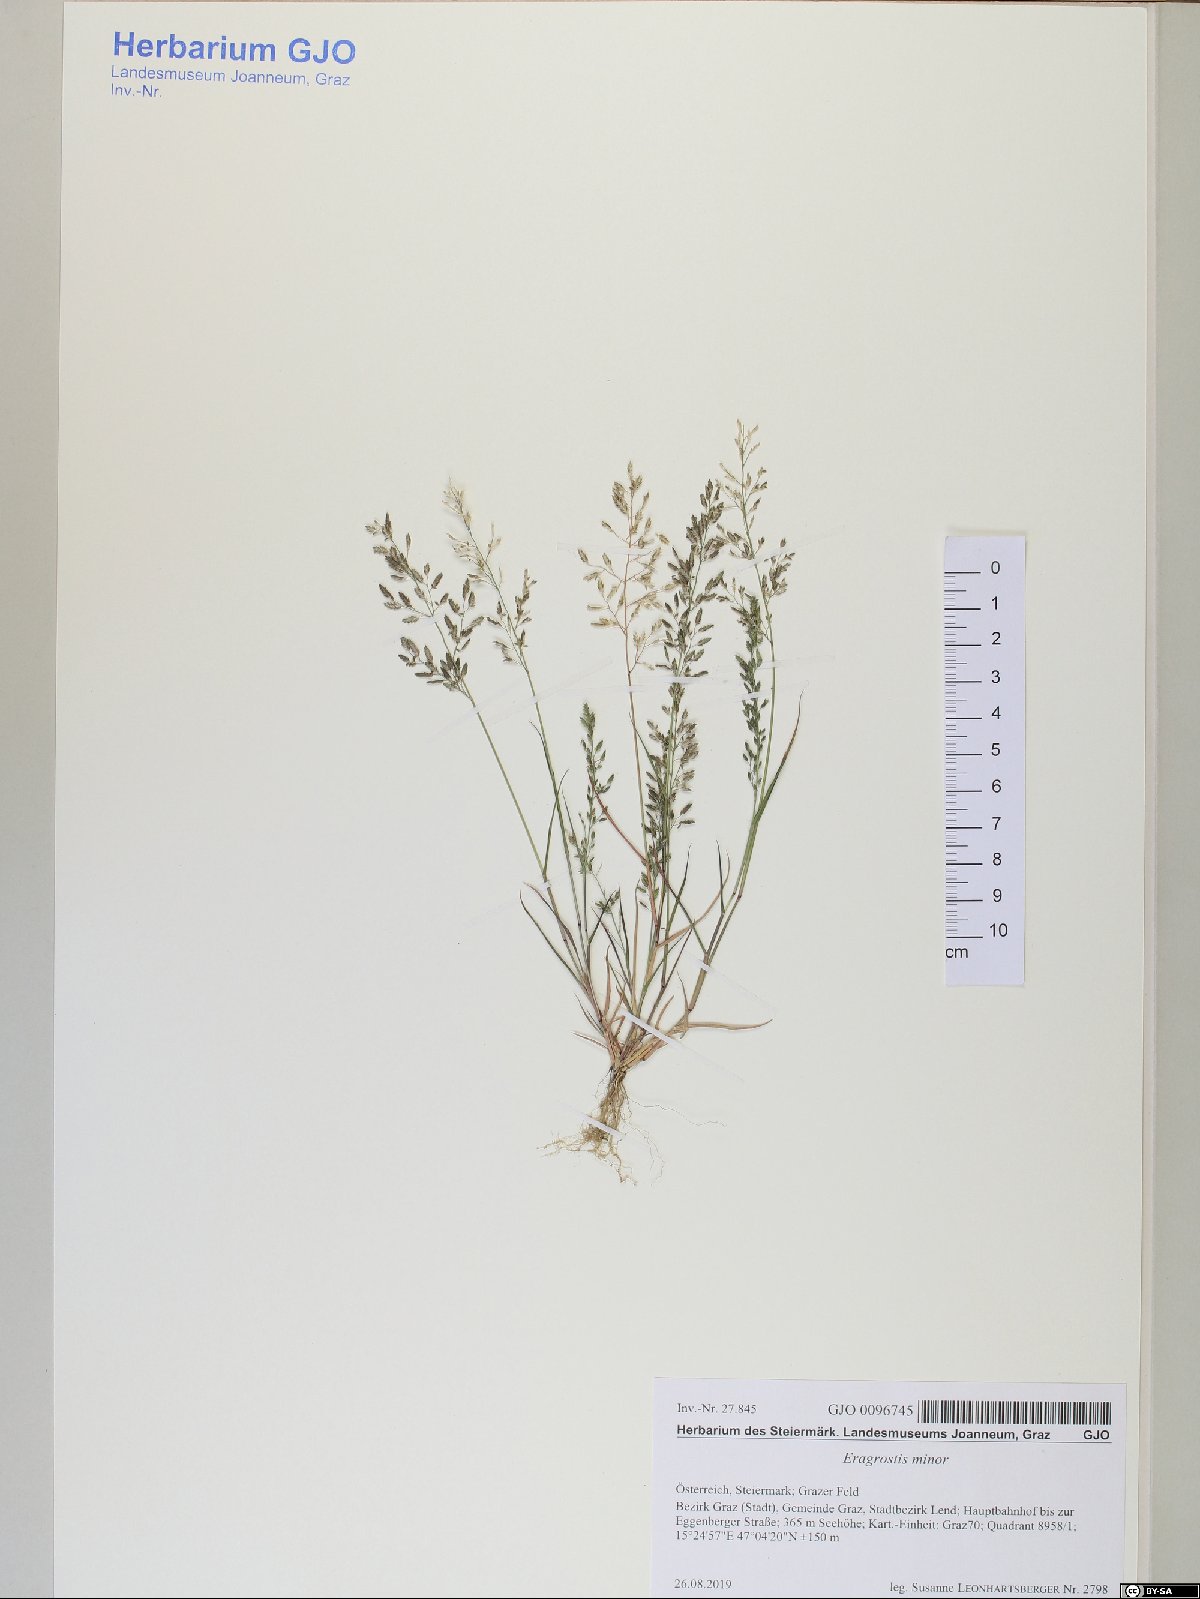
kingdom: Plantae
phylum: Tracheophyta
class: Liliopsida
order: Poales
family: Poaceae
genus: Eragrostis
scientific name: Eragrostis minor
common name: Small love-grass
